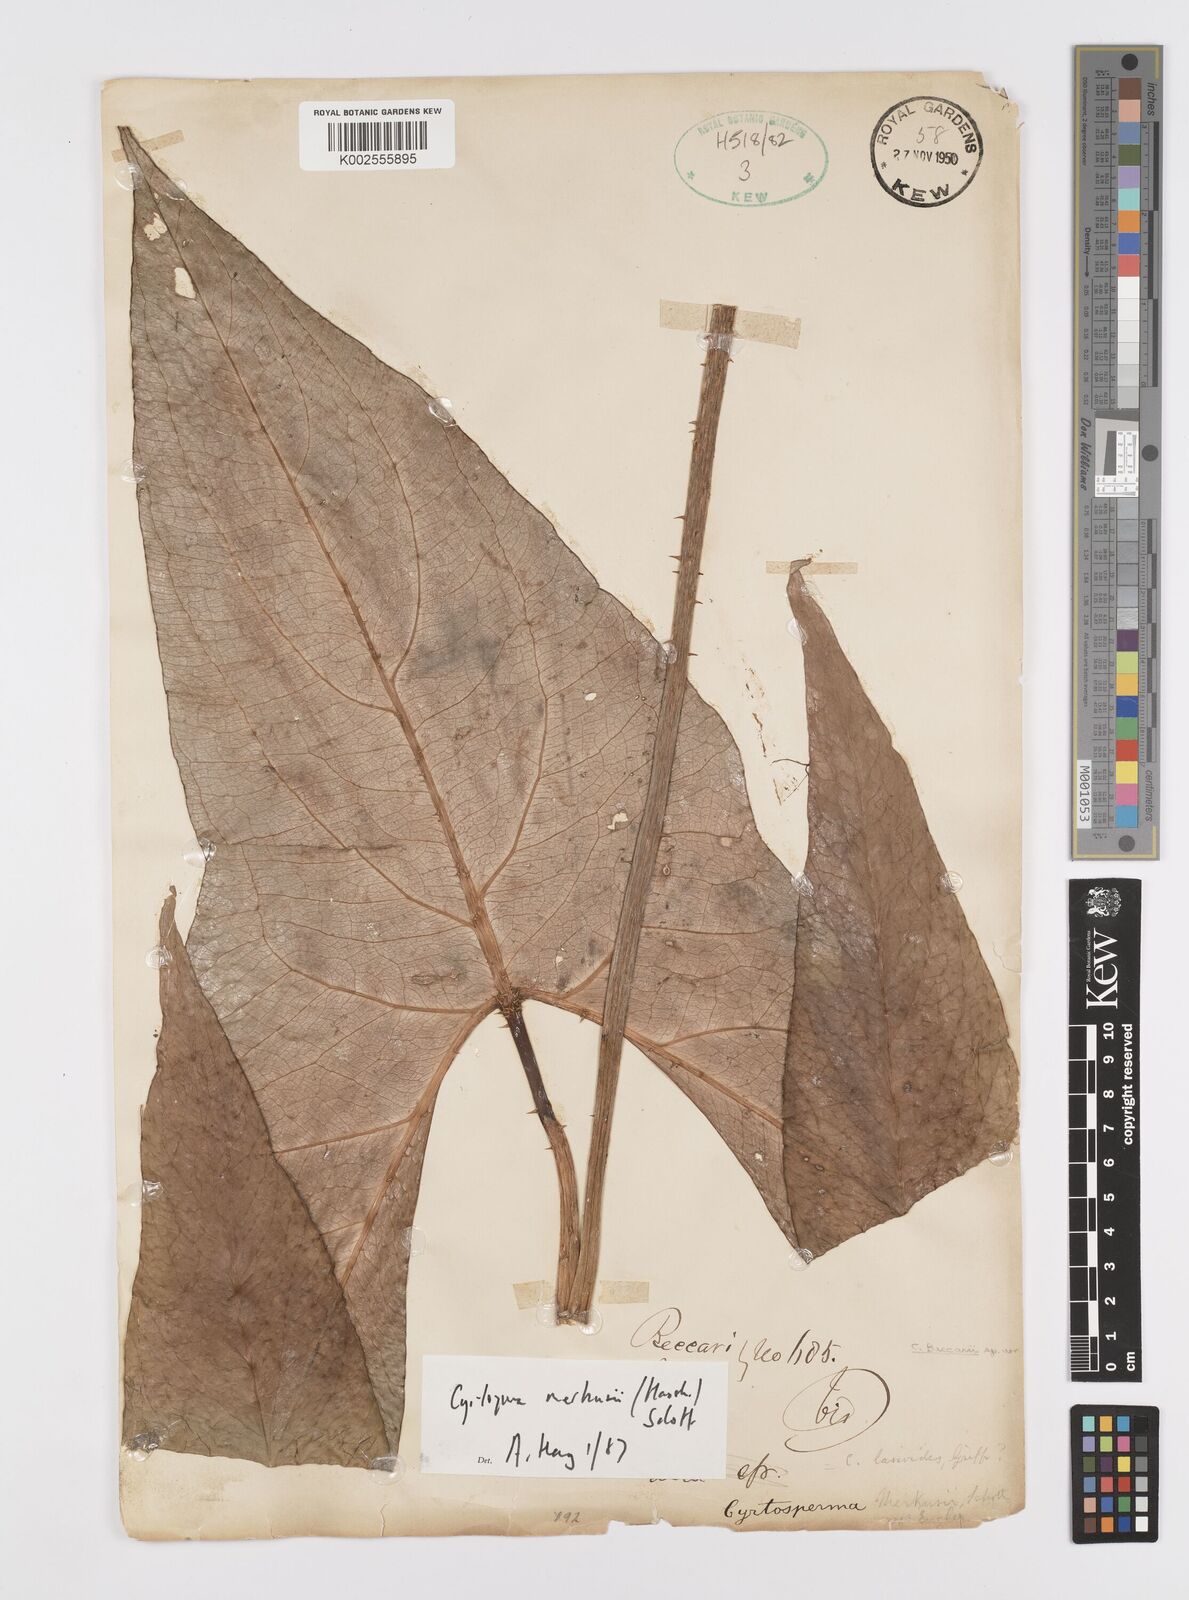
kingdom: Plantae
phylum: Tracheophyta
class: Liliopsida
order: Alismatales
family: Araceae
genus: Cyrtosperma
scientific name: Cyrtosperma merkusii
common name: Giant swamp-taro
